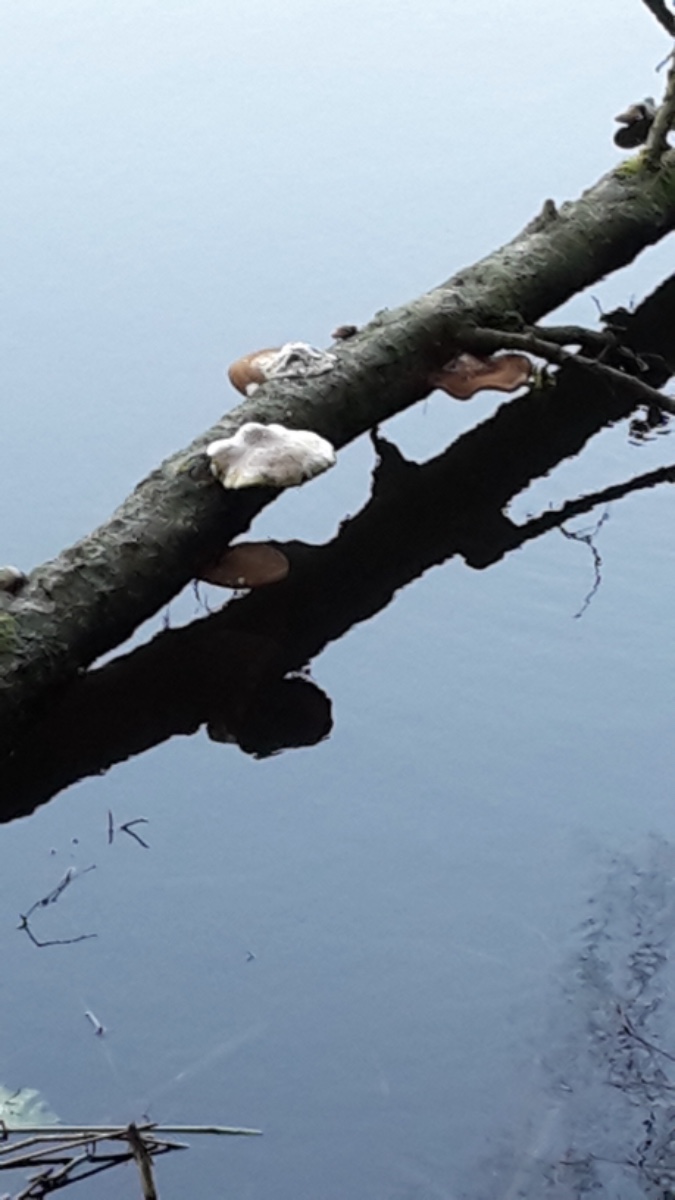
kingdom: Fungi
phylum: Basidiomycota
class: Agaricomycetes
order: Polyporales
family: Fomitopsidaceae
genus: Fomitopsis
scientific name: Fomitopsis betulina
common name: birkeporesvamp
